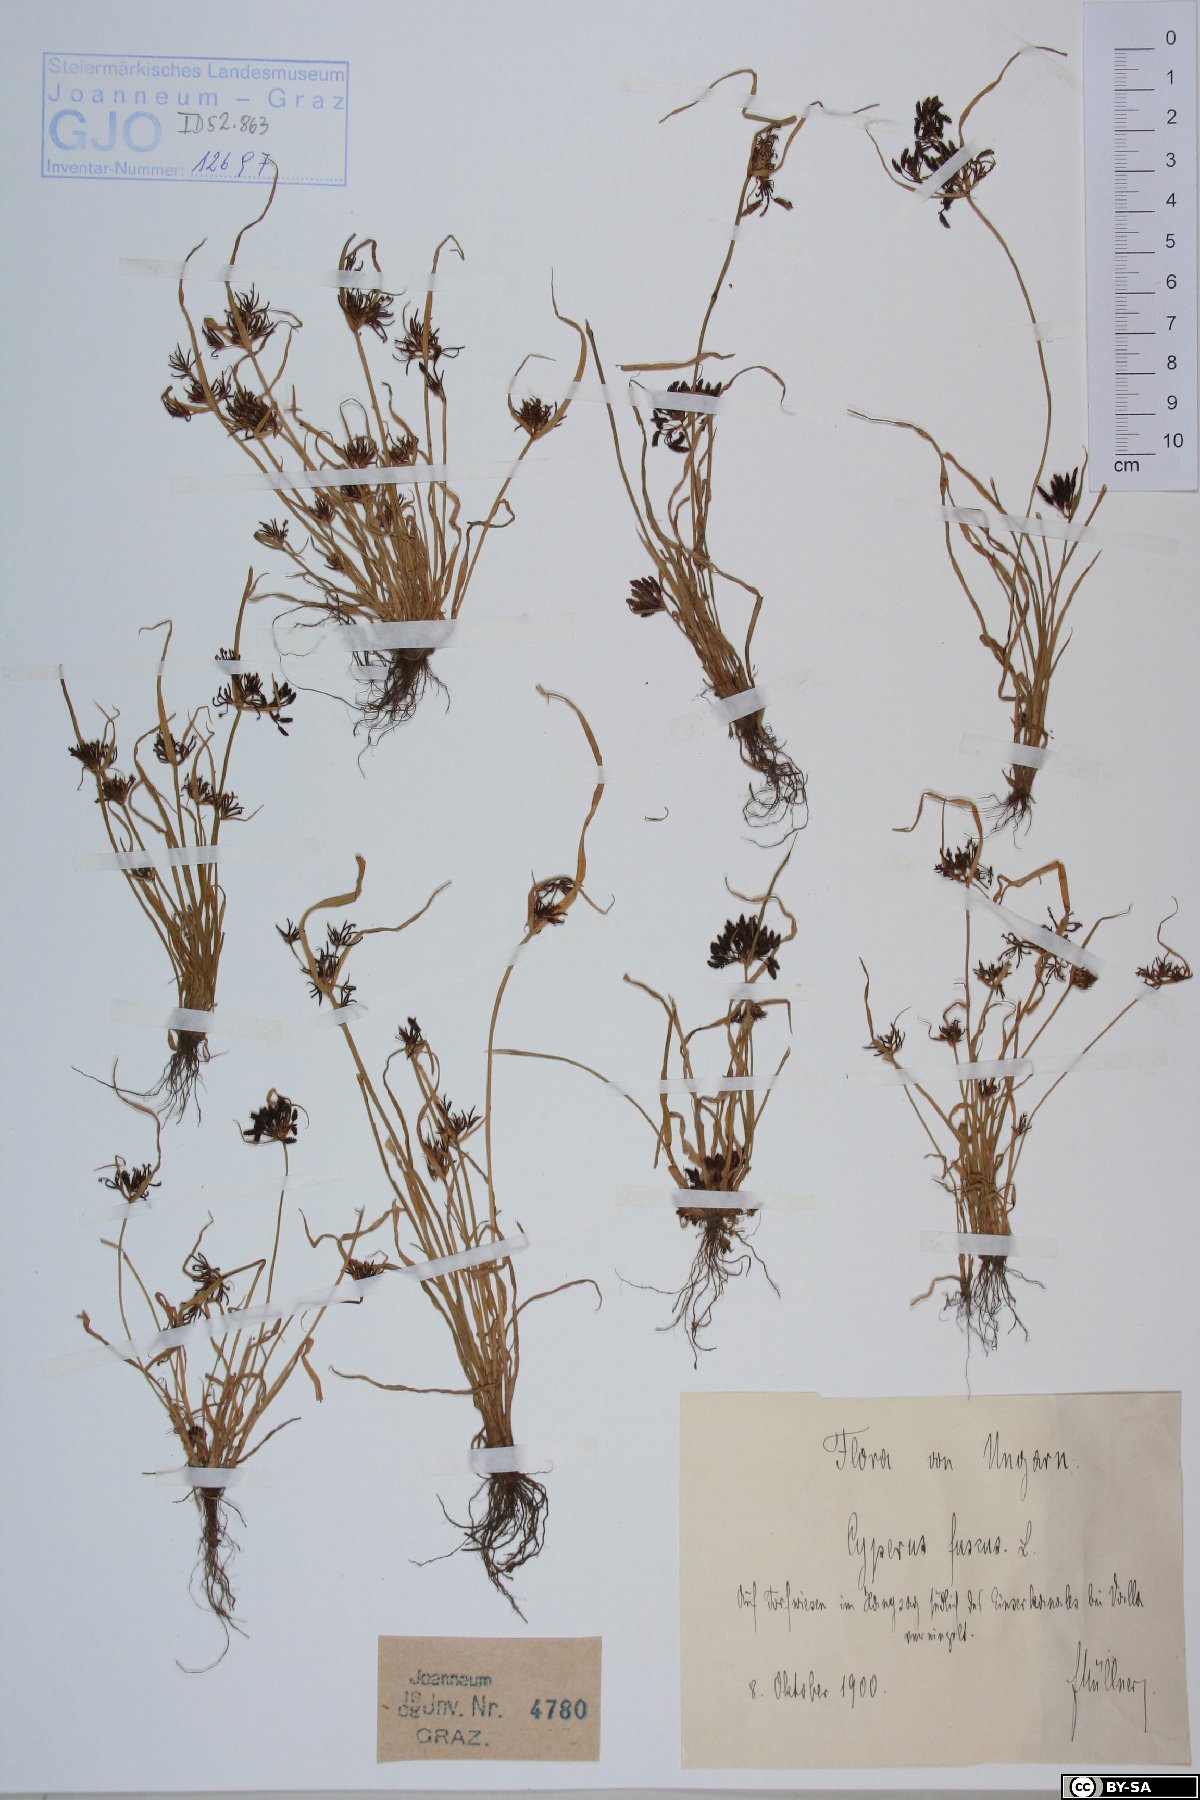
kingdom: Plantae
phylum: Tracheophyta
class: Liliopsida
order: Poales
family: Cyperaceae
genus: Cyperus
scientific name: Cyperus fuscus
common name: Brown galingale
